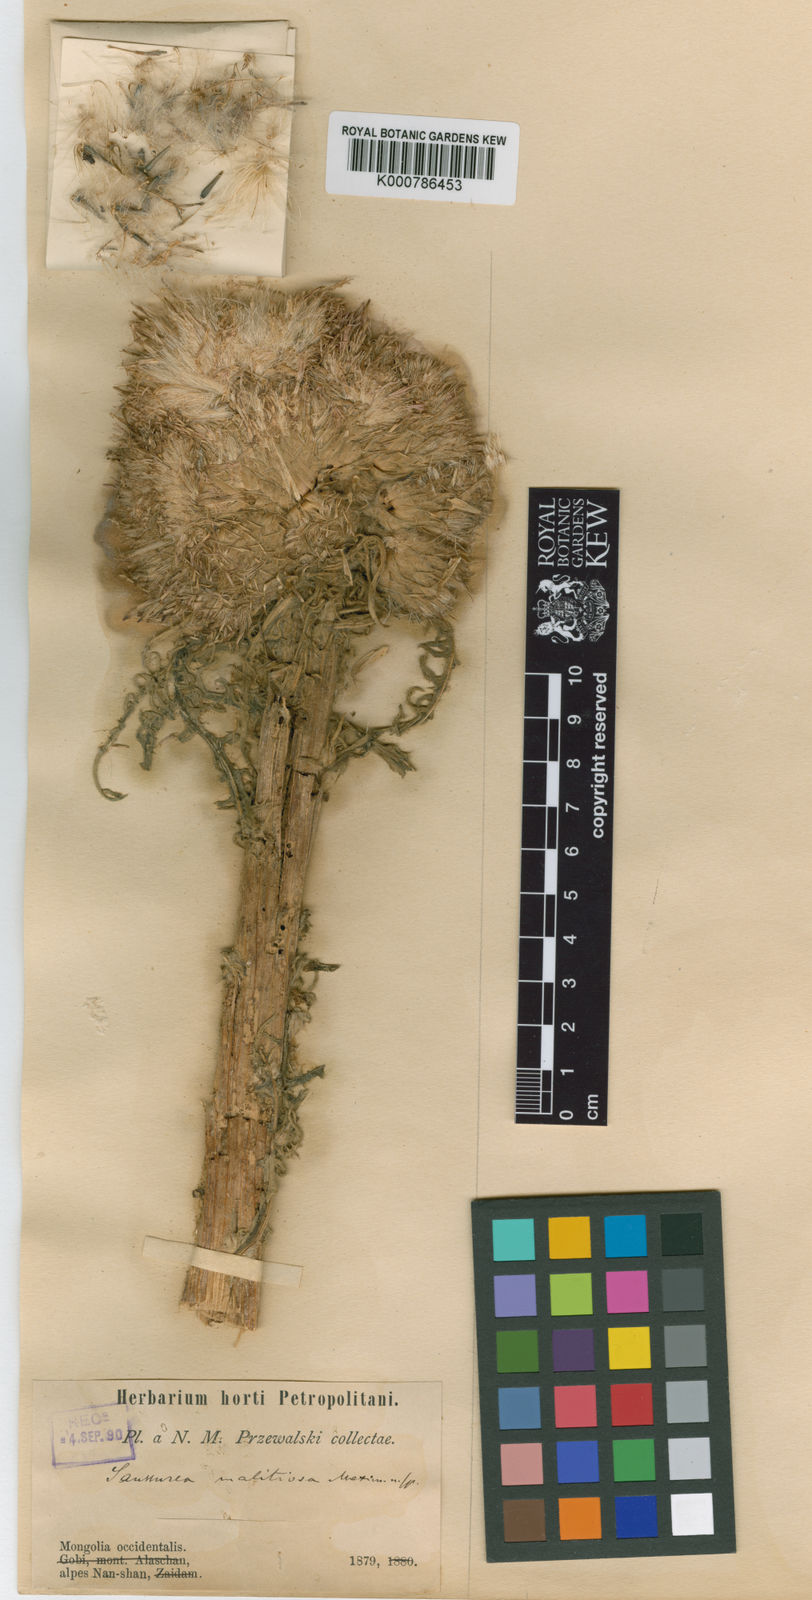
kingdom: Plantae
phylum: Tracheophyta
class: Magnoliopsida
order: Asterales
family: Asteraceae
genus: Saussurea
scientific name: Saussurea malitiosa
